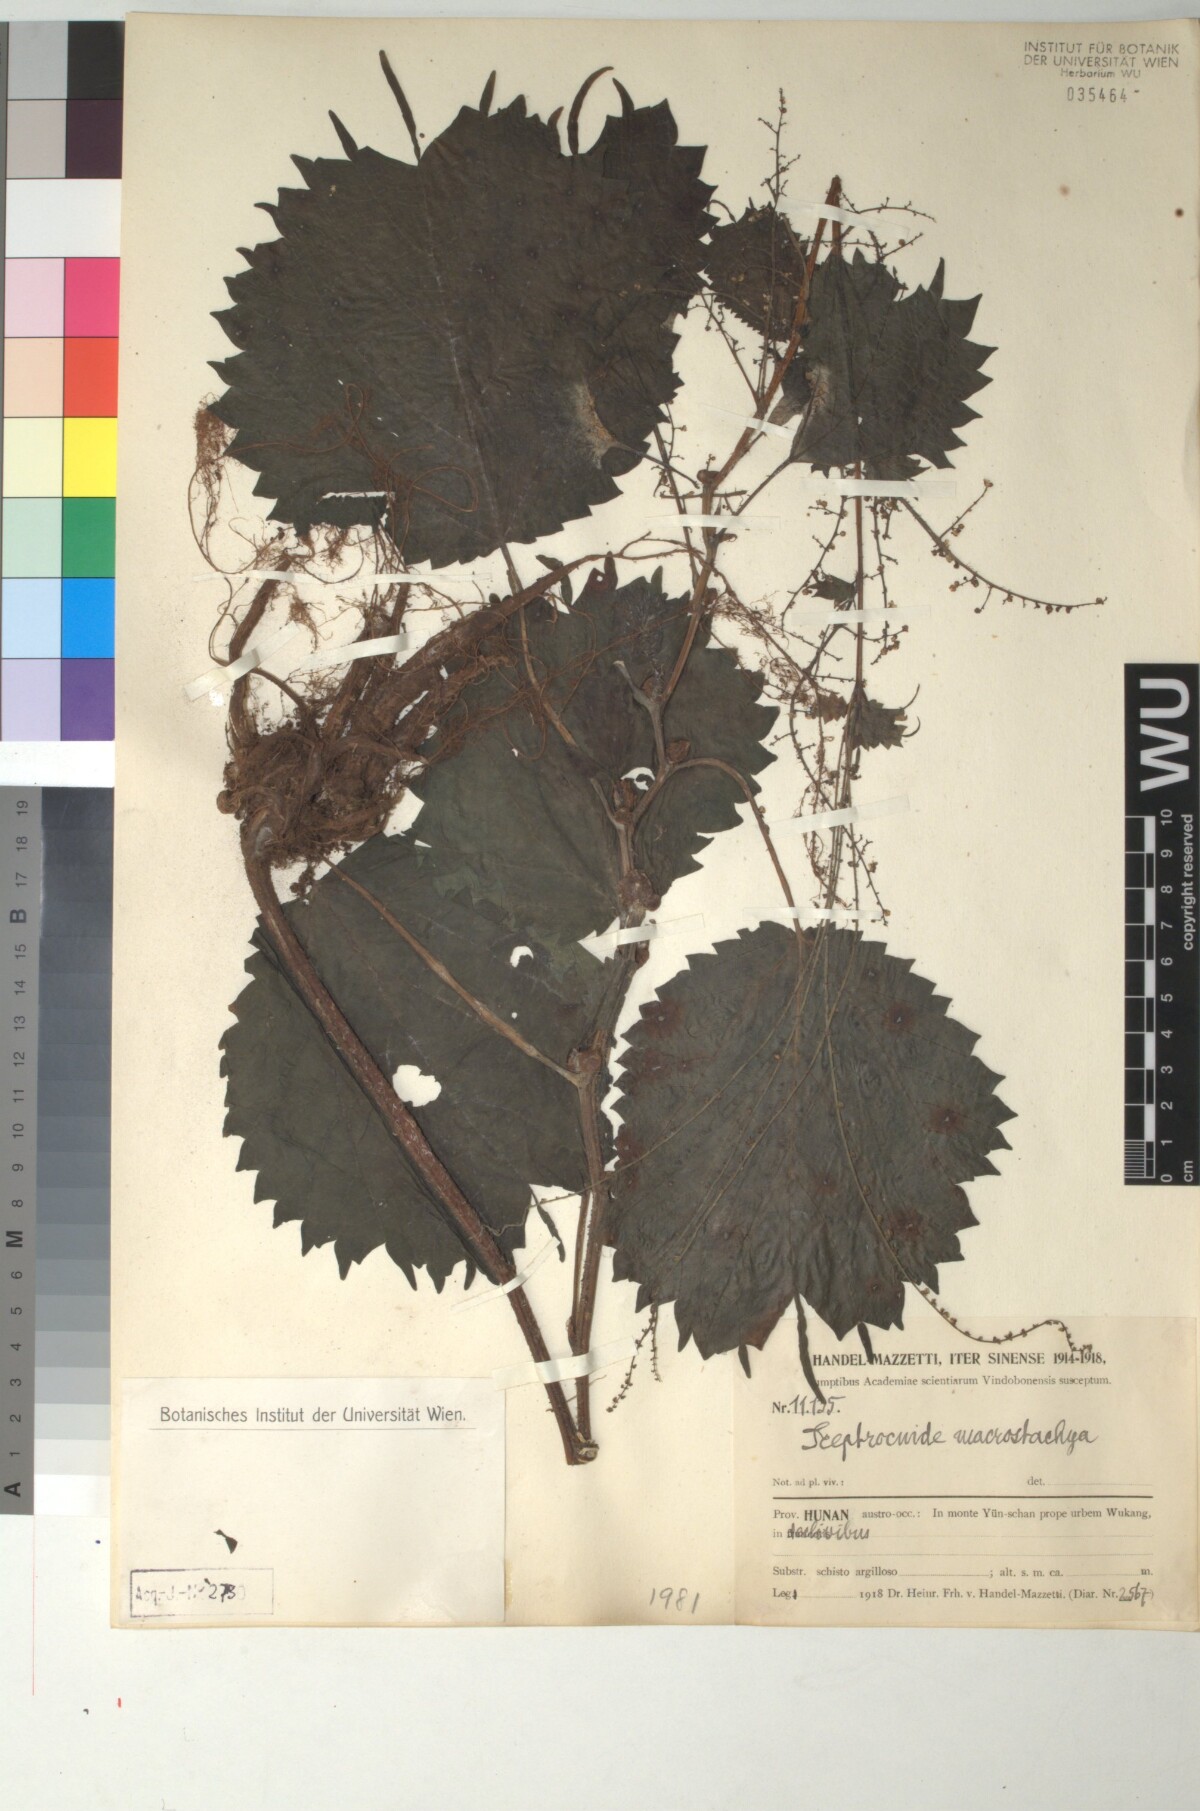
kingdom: Plantae
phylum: Tracheophyta
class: Magnoliopsida
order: Rosales
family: Urticaceae
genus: Laportea
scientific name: Laportea cuspidata
